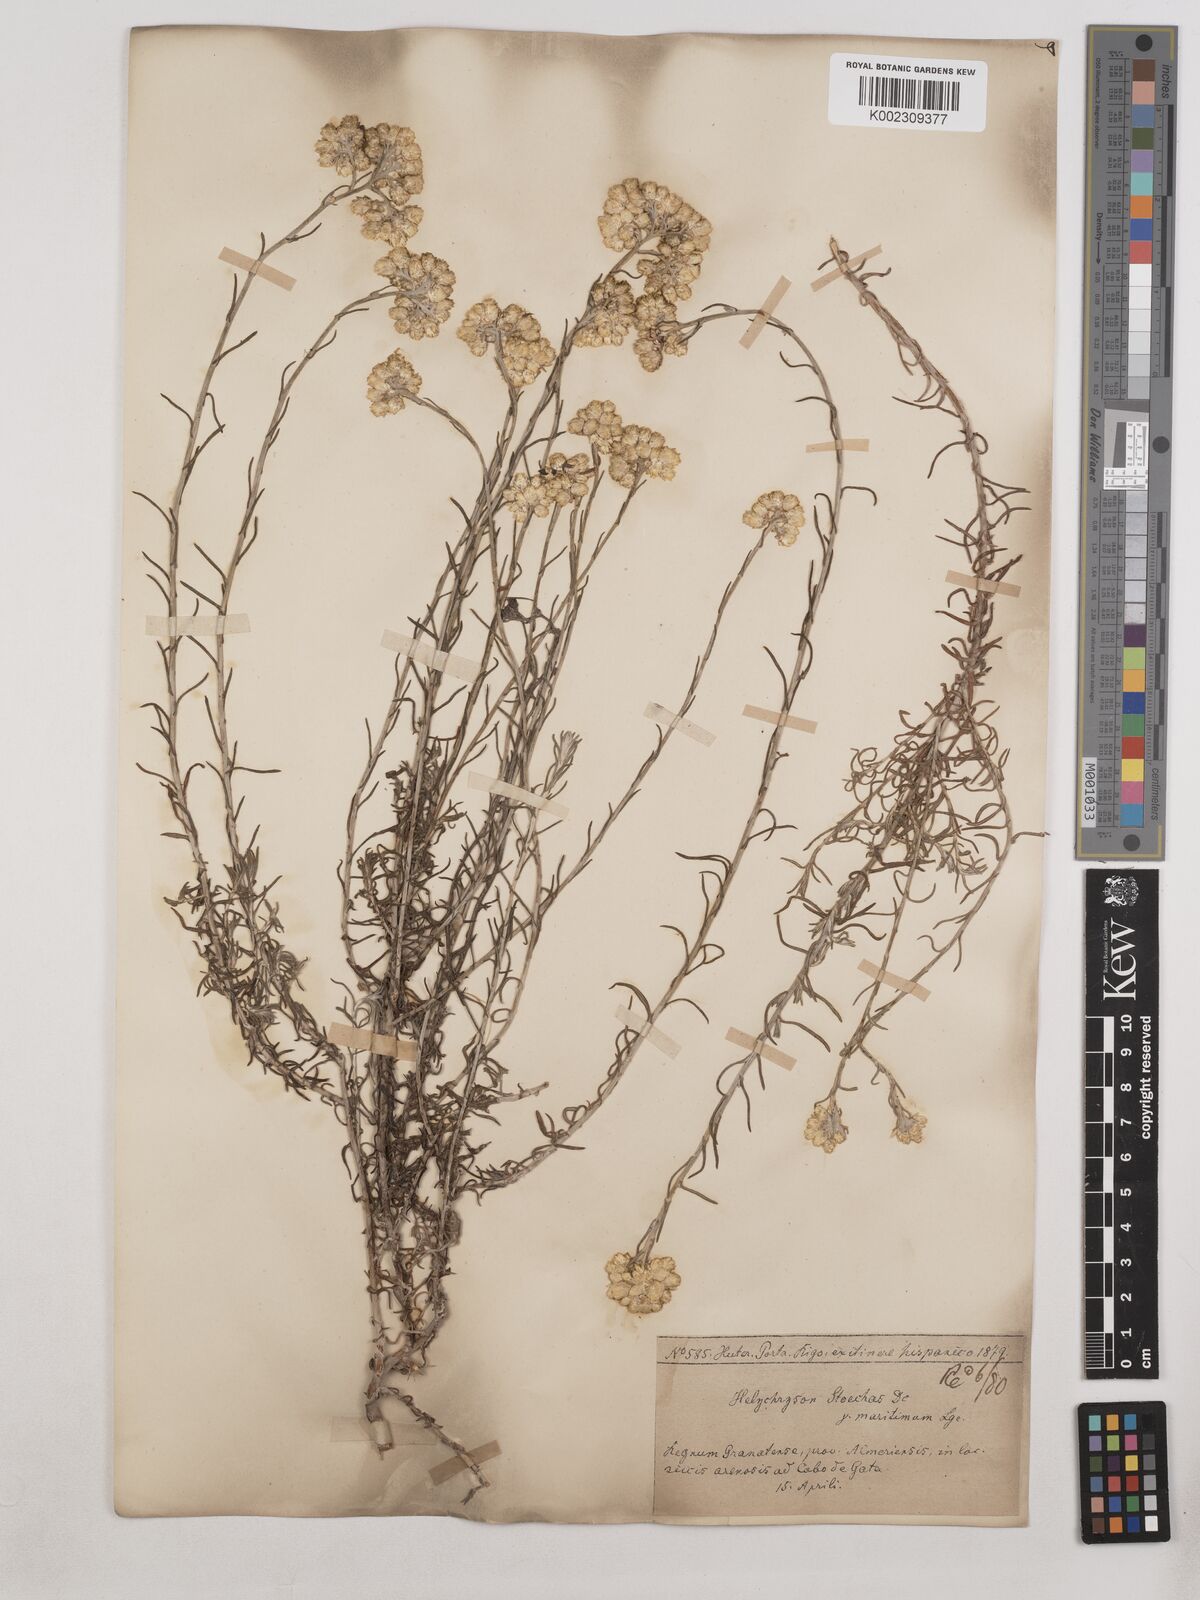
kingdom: Plantae
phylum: Tracheophyta
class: Magnoliopsida
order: Asterales
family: Asteraceae
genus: Helichrysum
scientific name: Helichrysum
